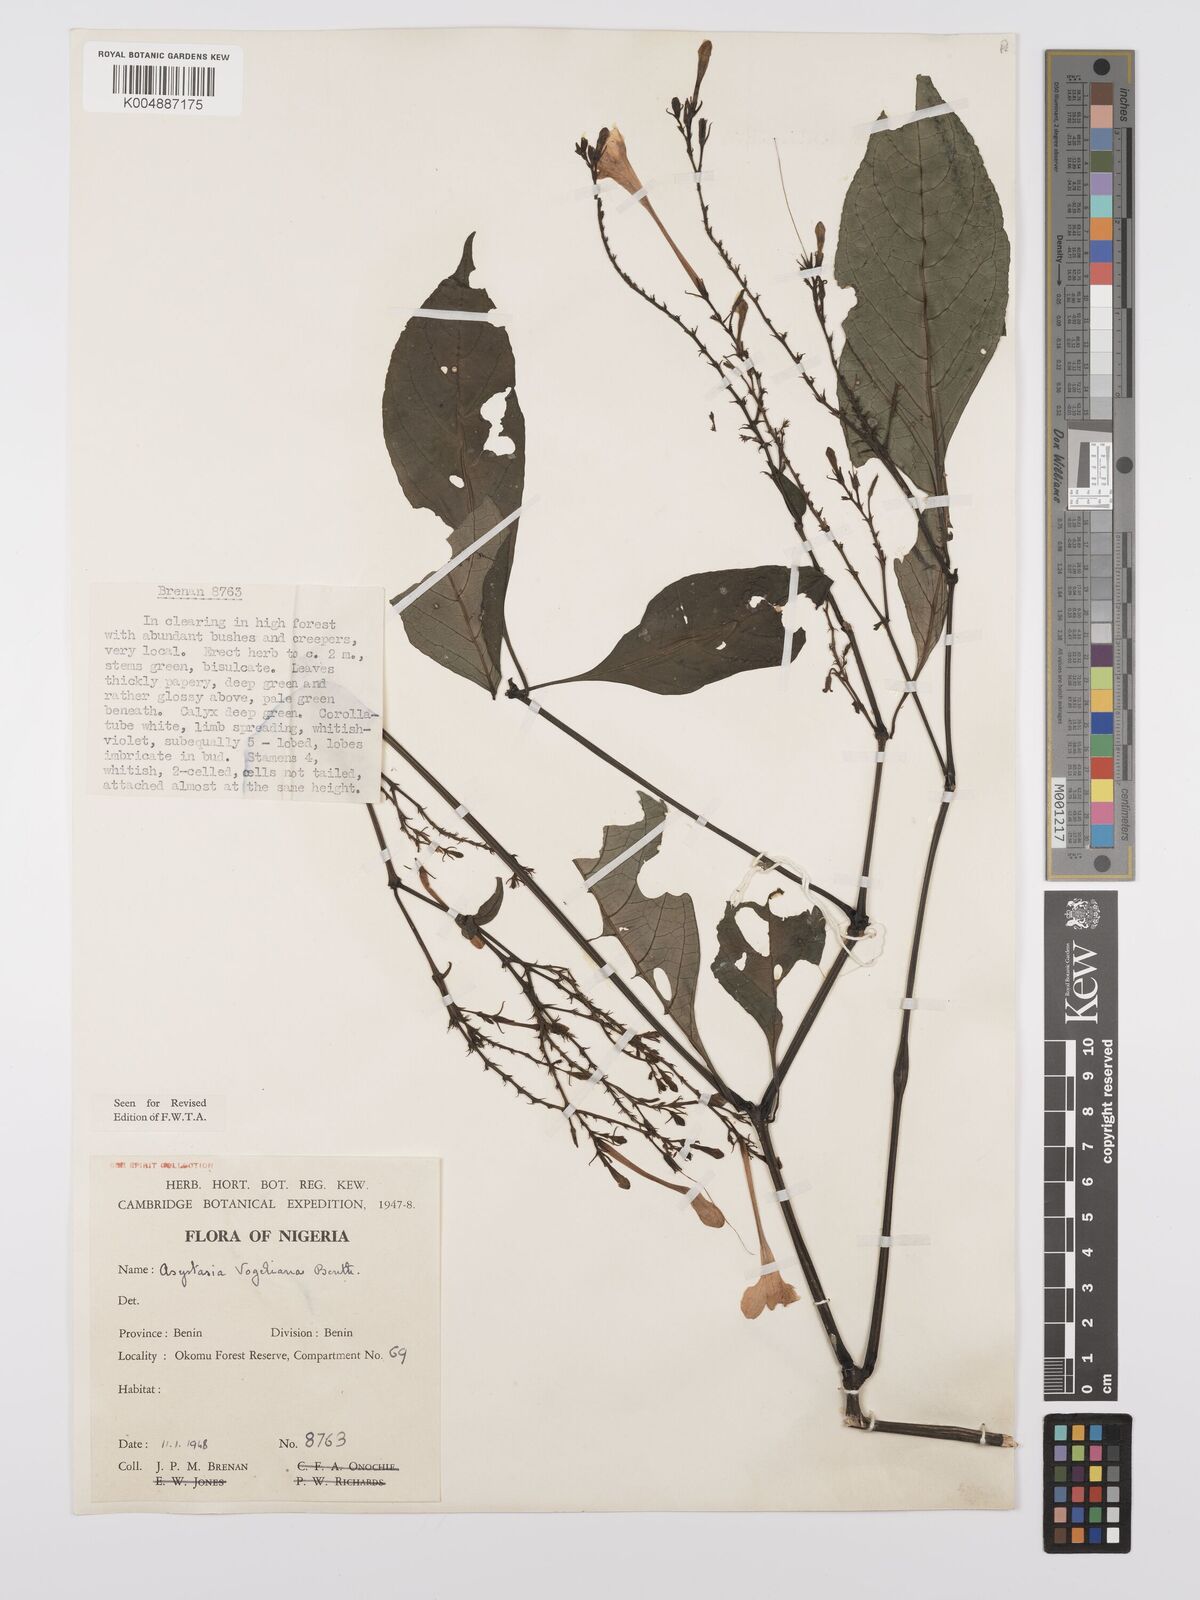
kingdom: Plantae
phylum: Tracheophyta
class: Magnoliopsida
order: Lamiales
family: Acanthaceae
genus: Asystasia
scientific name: Asystasia vogeliana
